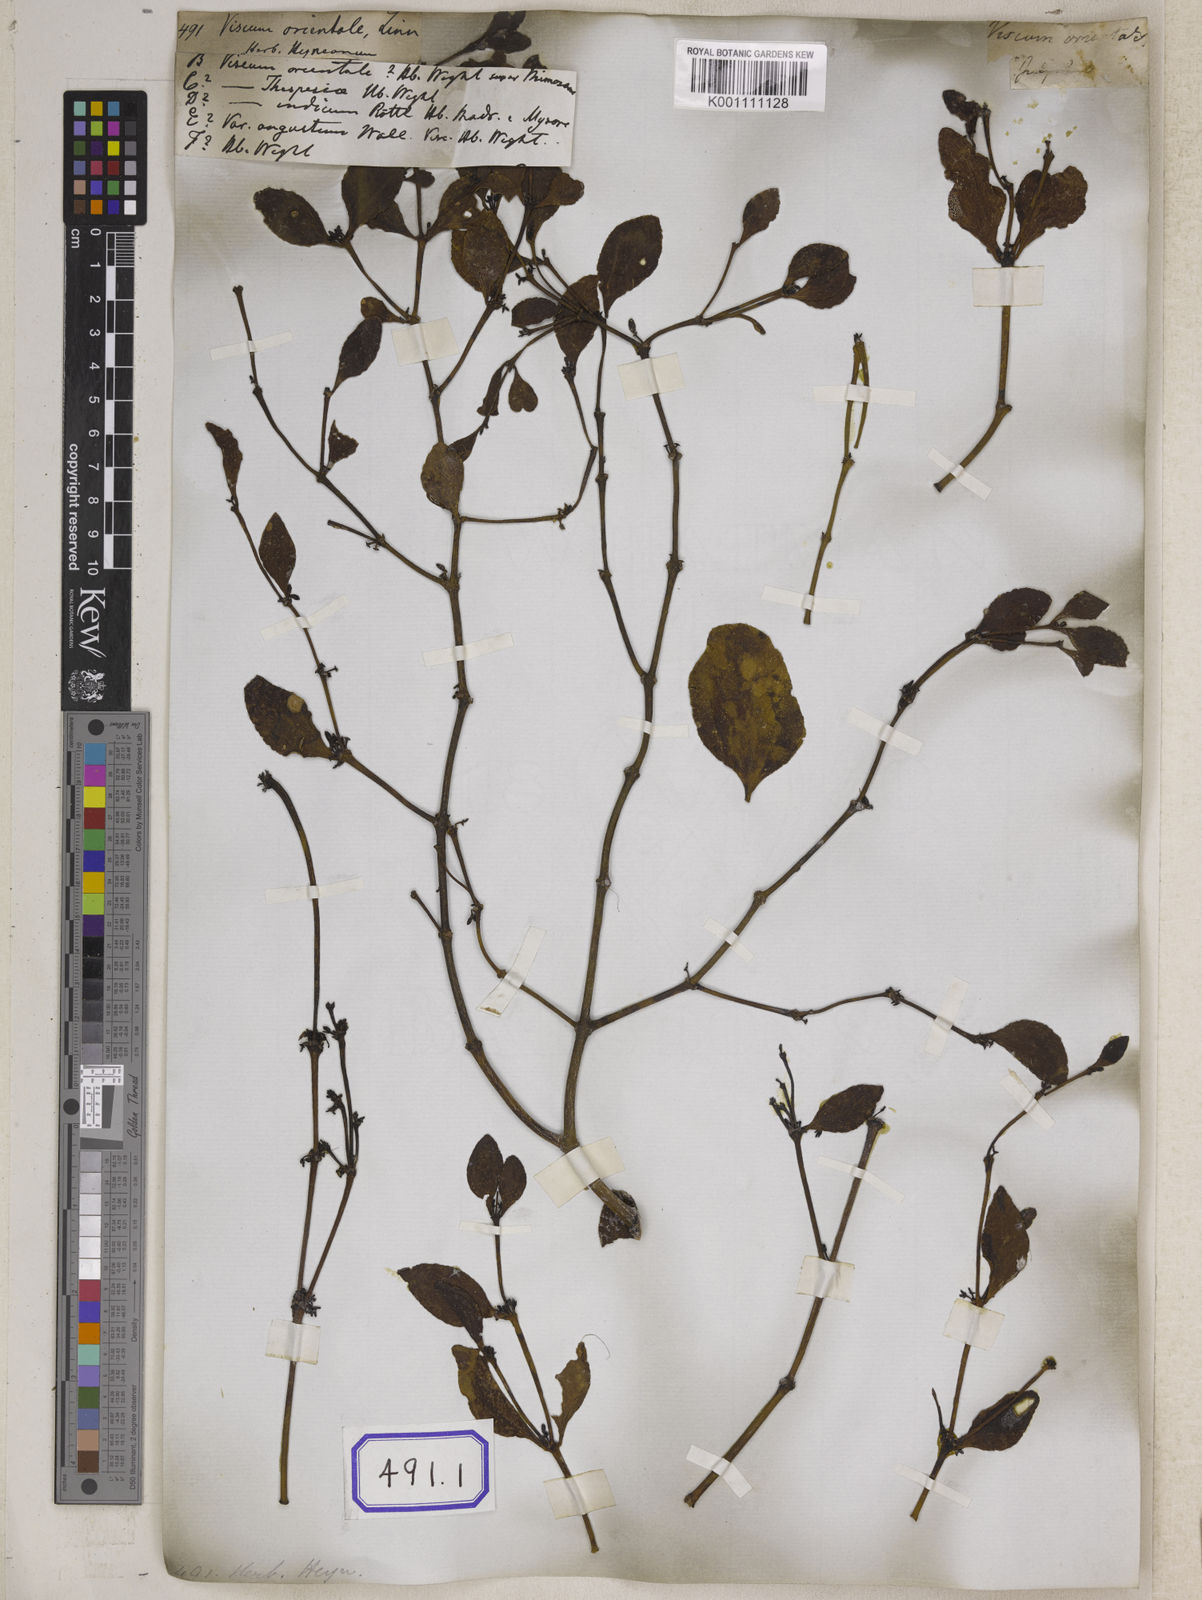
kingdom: Plantae
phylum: Tracheophyta
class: Magnoliopsida
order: Santalales
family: Viscaceae
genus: Viscum
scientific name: Viscum
